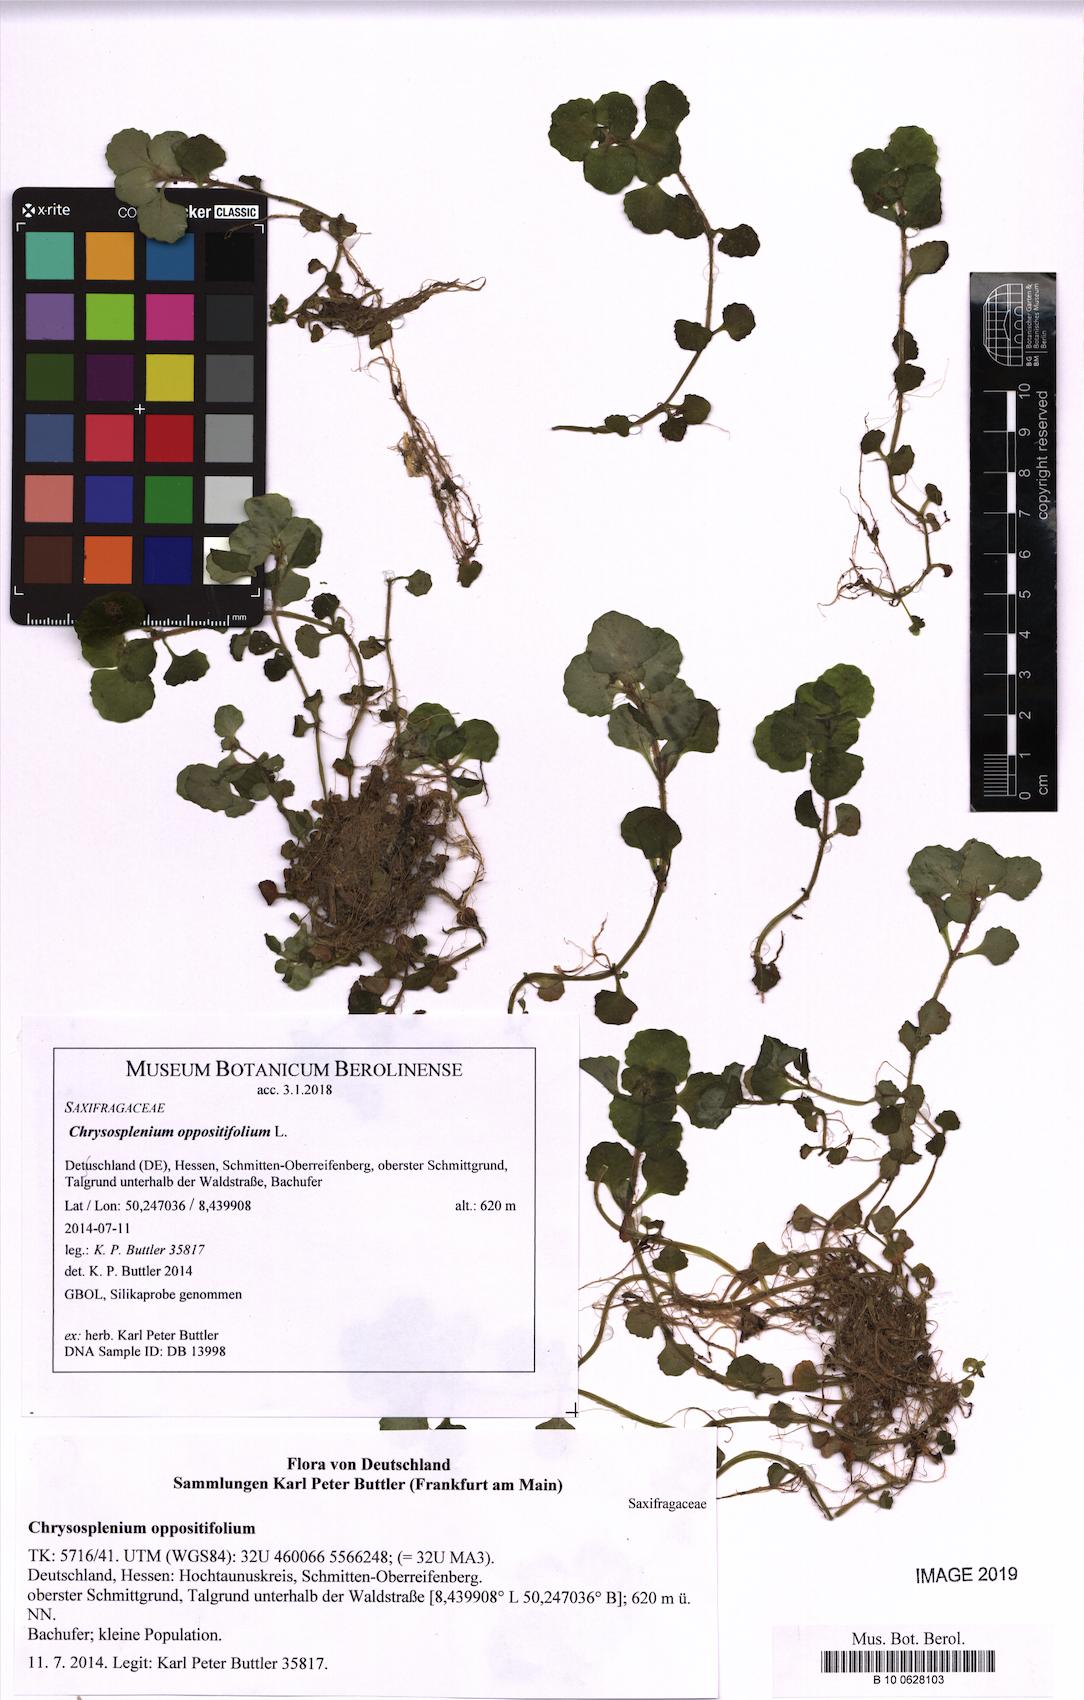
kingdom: Plantae
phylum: Tracheophyta
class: Magnoliopsida
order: Saxifragales
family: Saxifragaceae
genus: Chrysosplenium
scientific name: Chrysosplenium oppositifolium
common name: Opposite-leaved golden-saxifrage
